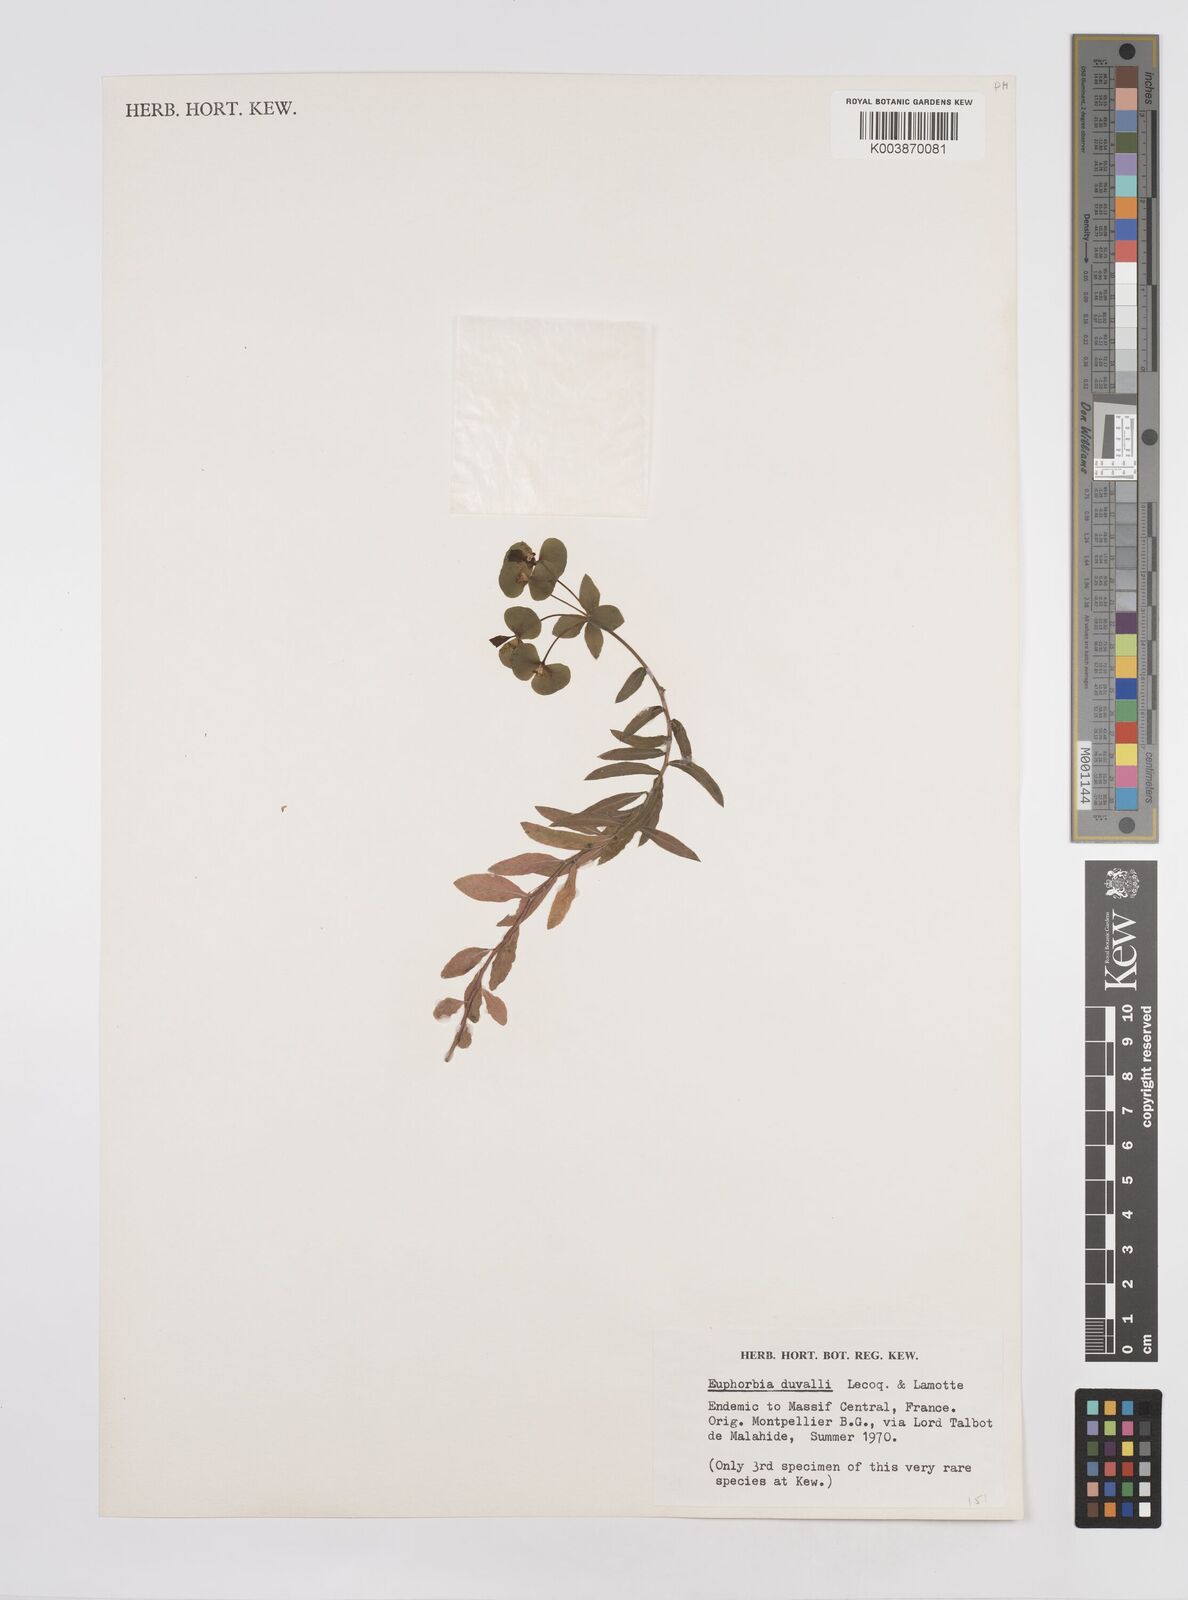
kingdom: Plantae
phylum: Tracheophyta
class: Magnoliopsida
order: Malpighiales
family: Euphorbiaceae
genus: Euphorbia
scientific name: Euphorbia duvalii
